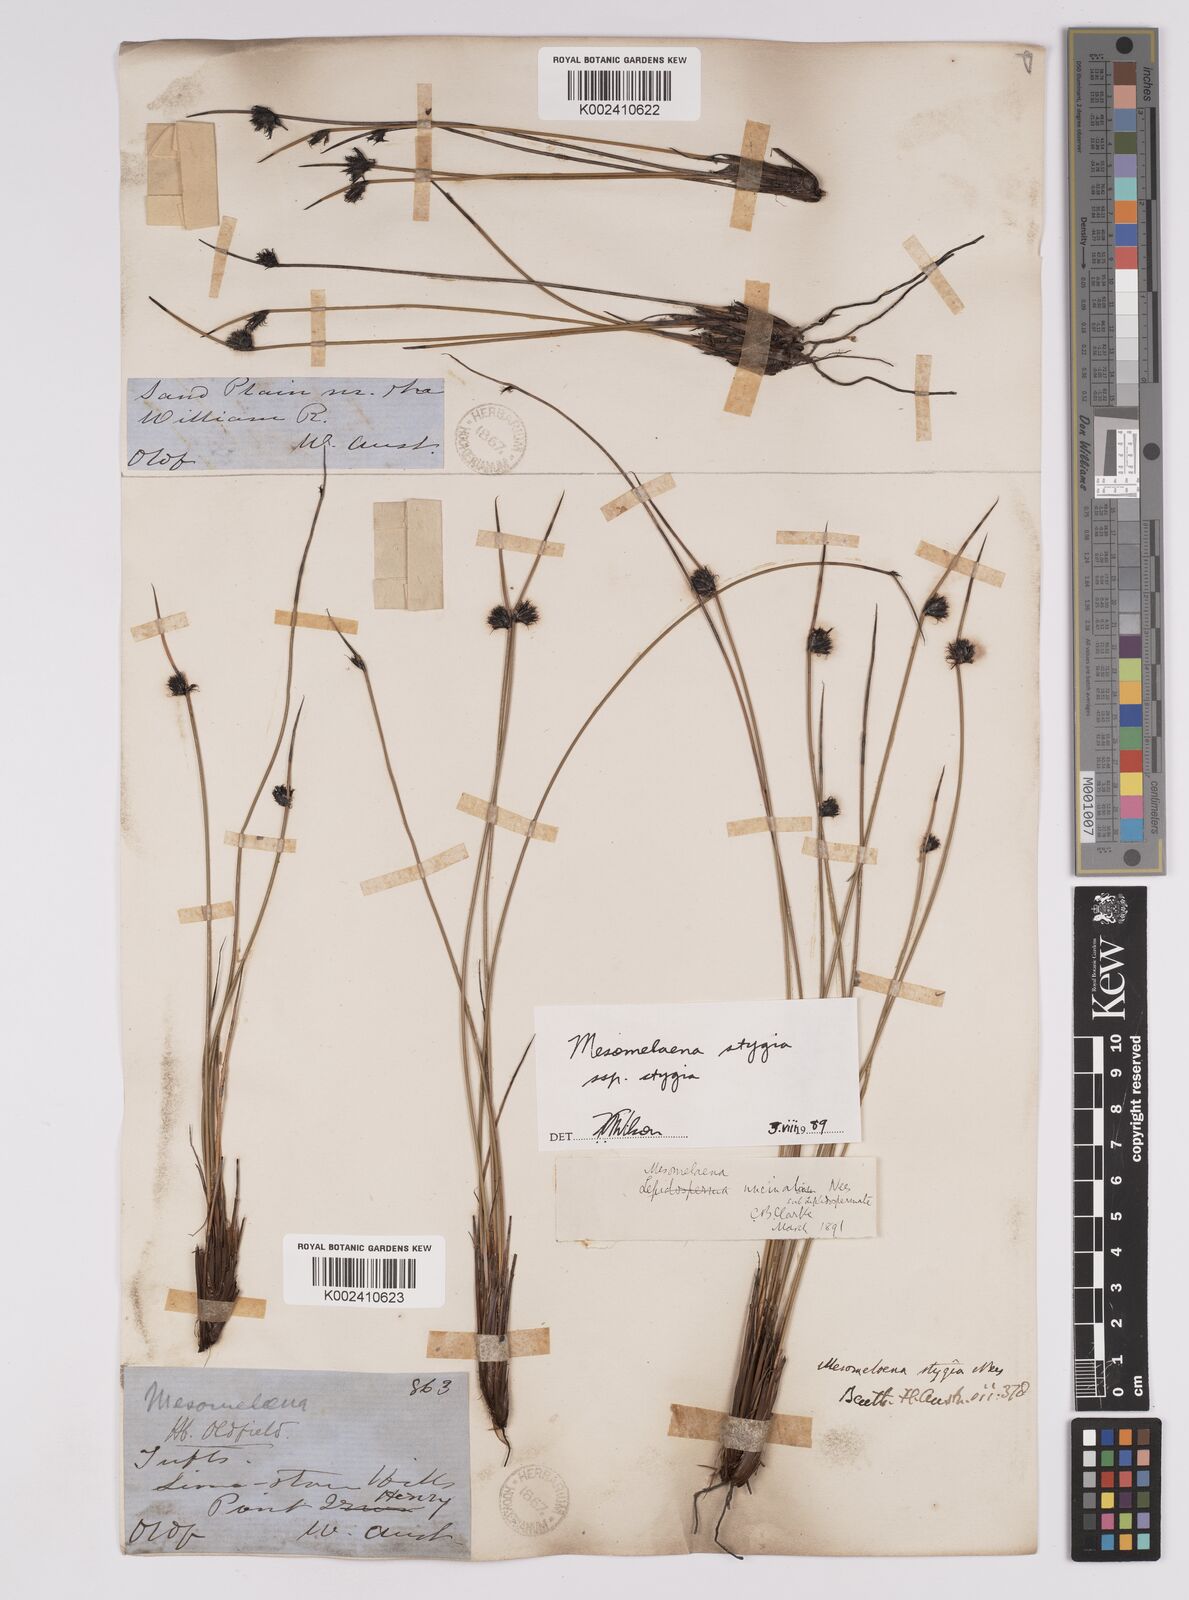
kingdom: Plantae
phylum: Tracheophyta
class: Liliopsida
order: Poales
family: Cyperaceae
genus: Mesomelaena
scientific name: Mesomelaena stygia
